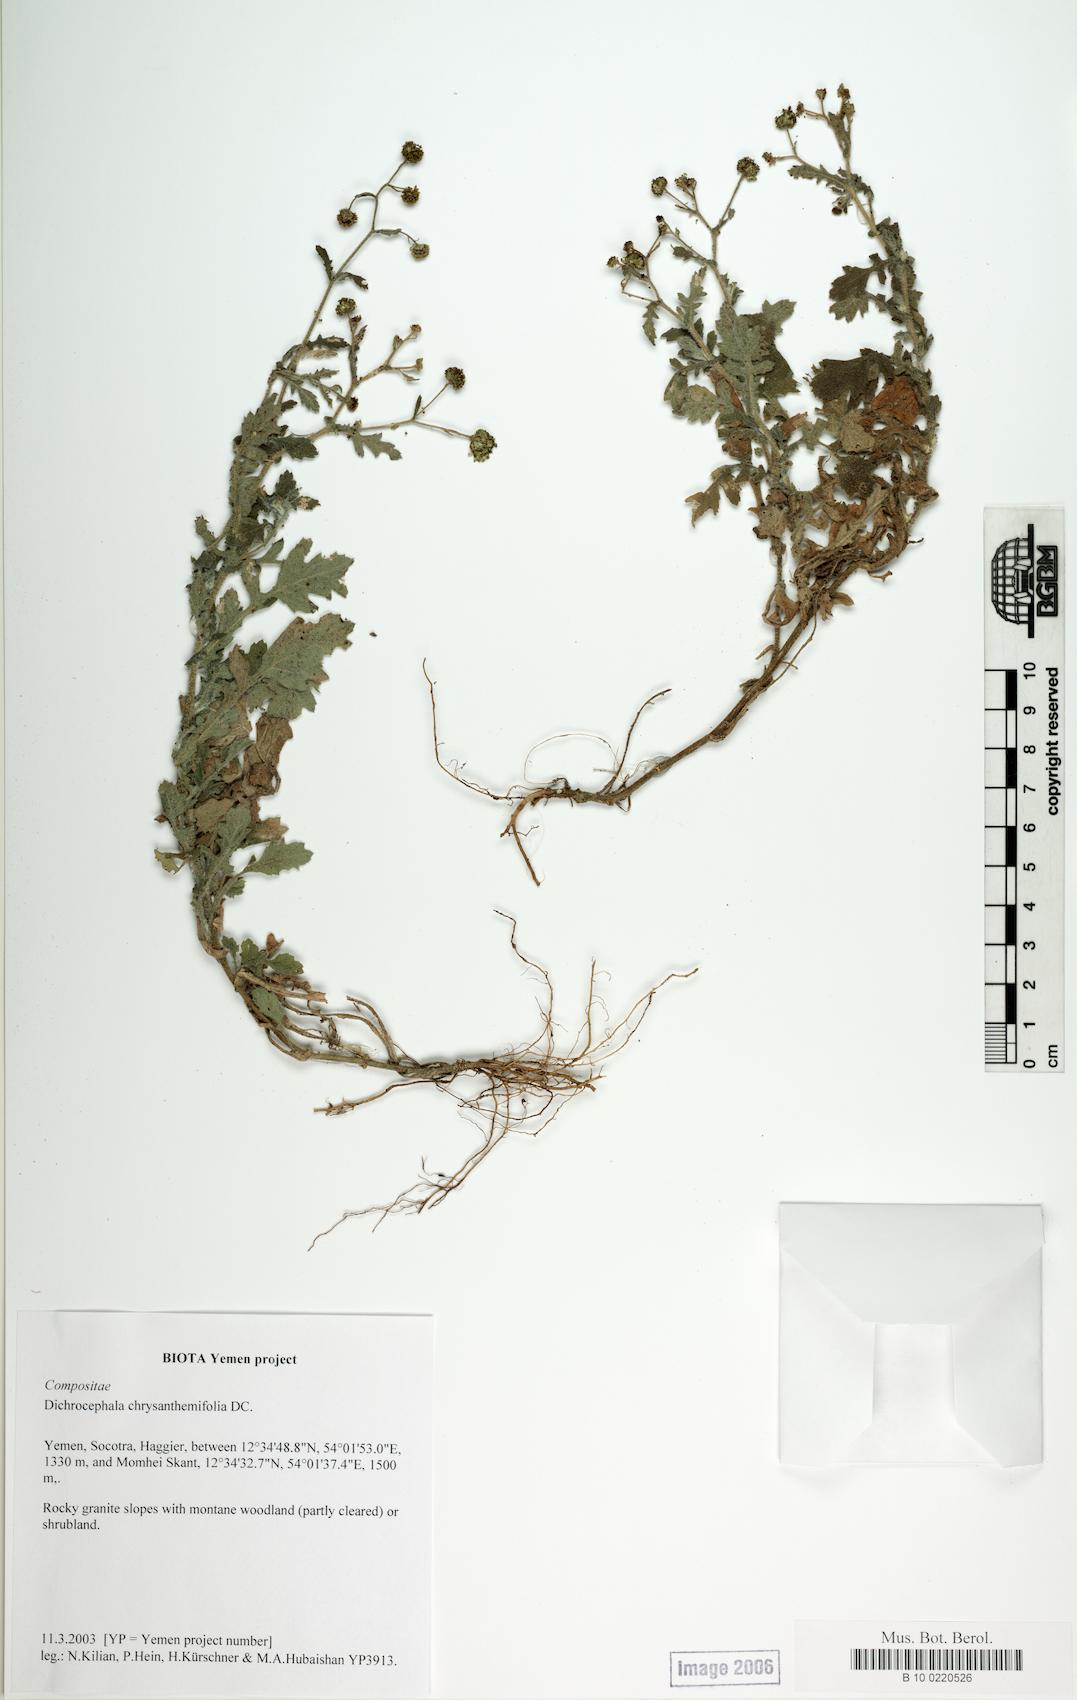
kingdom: Plantae
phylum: Tracheophyta
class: Magnoliopsida
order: Caryophyllales
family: Caryophyllaceae
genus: Stellaria
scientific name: Stellaria media
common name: Common chickweed
